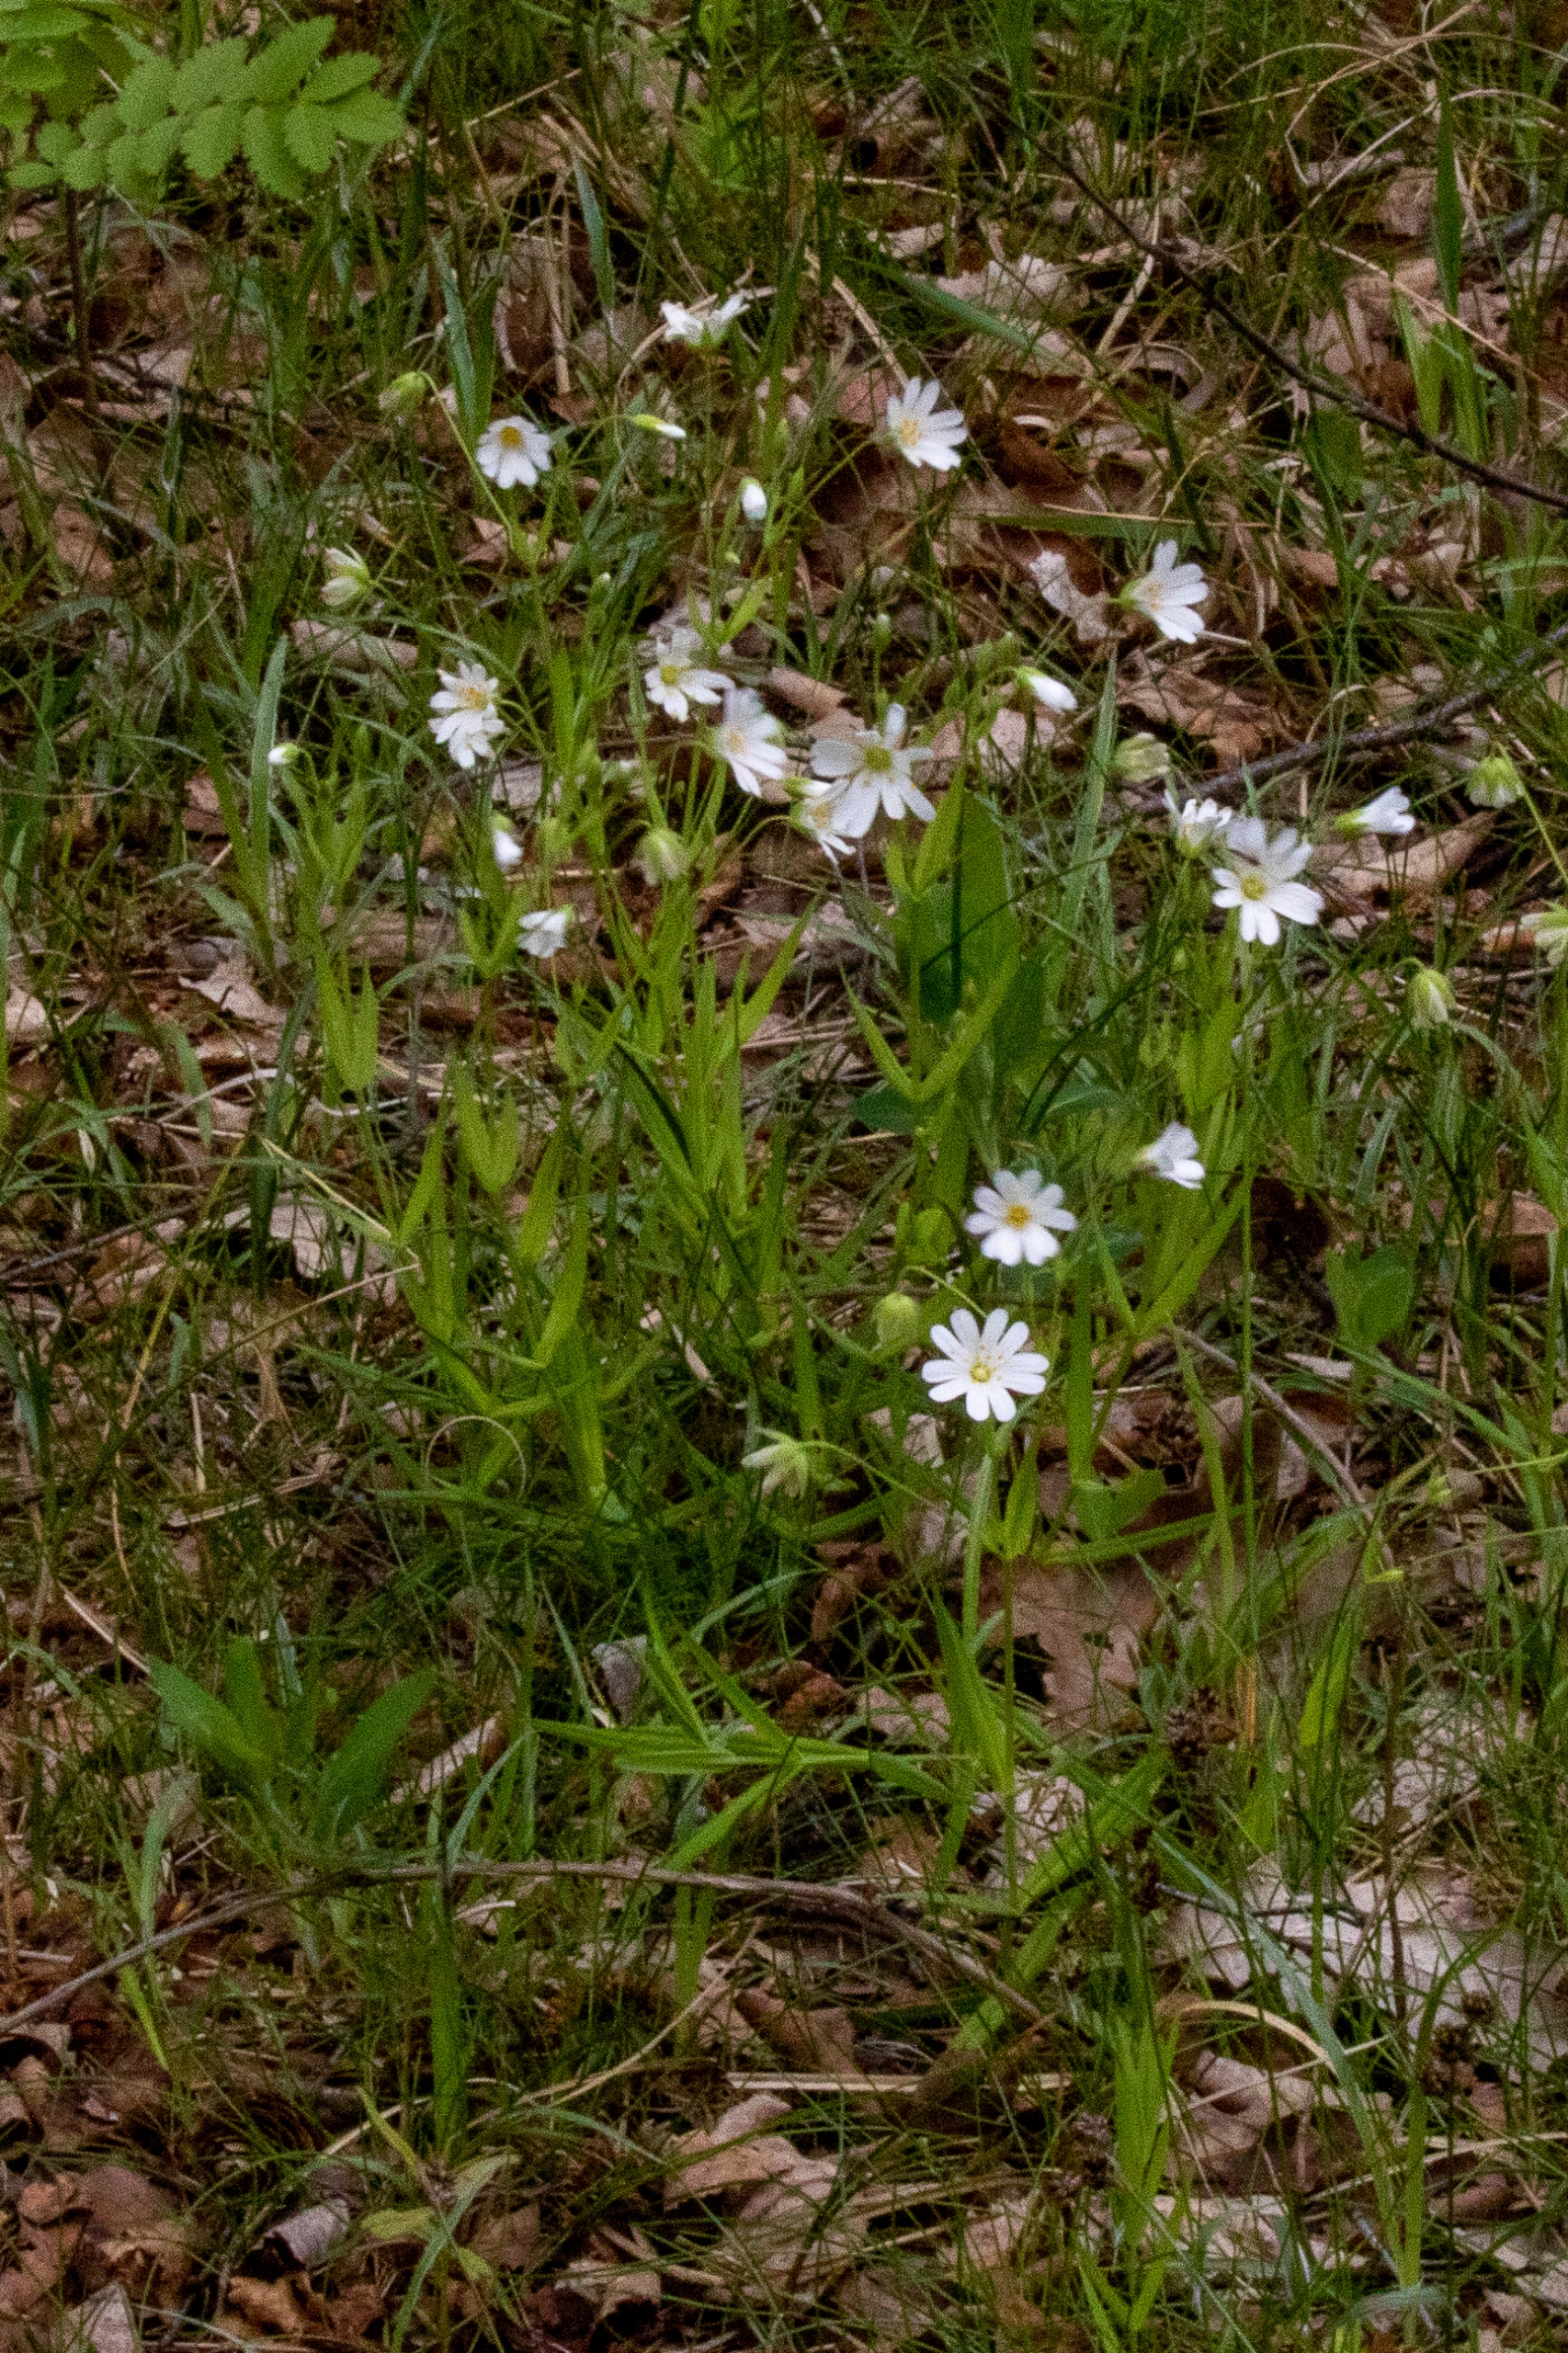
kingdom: Plantae
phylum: Tracheophyta
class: Magnoliopsida
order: Caryophyllales
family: Caryophyllaceae
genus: Rabelera
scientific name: Rabelera holostea
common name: Stor fladstjerne
